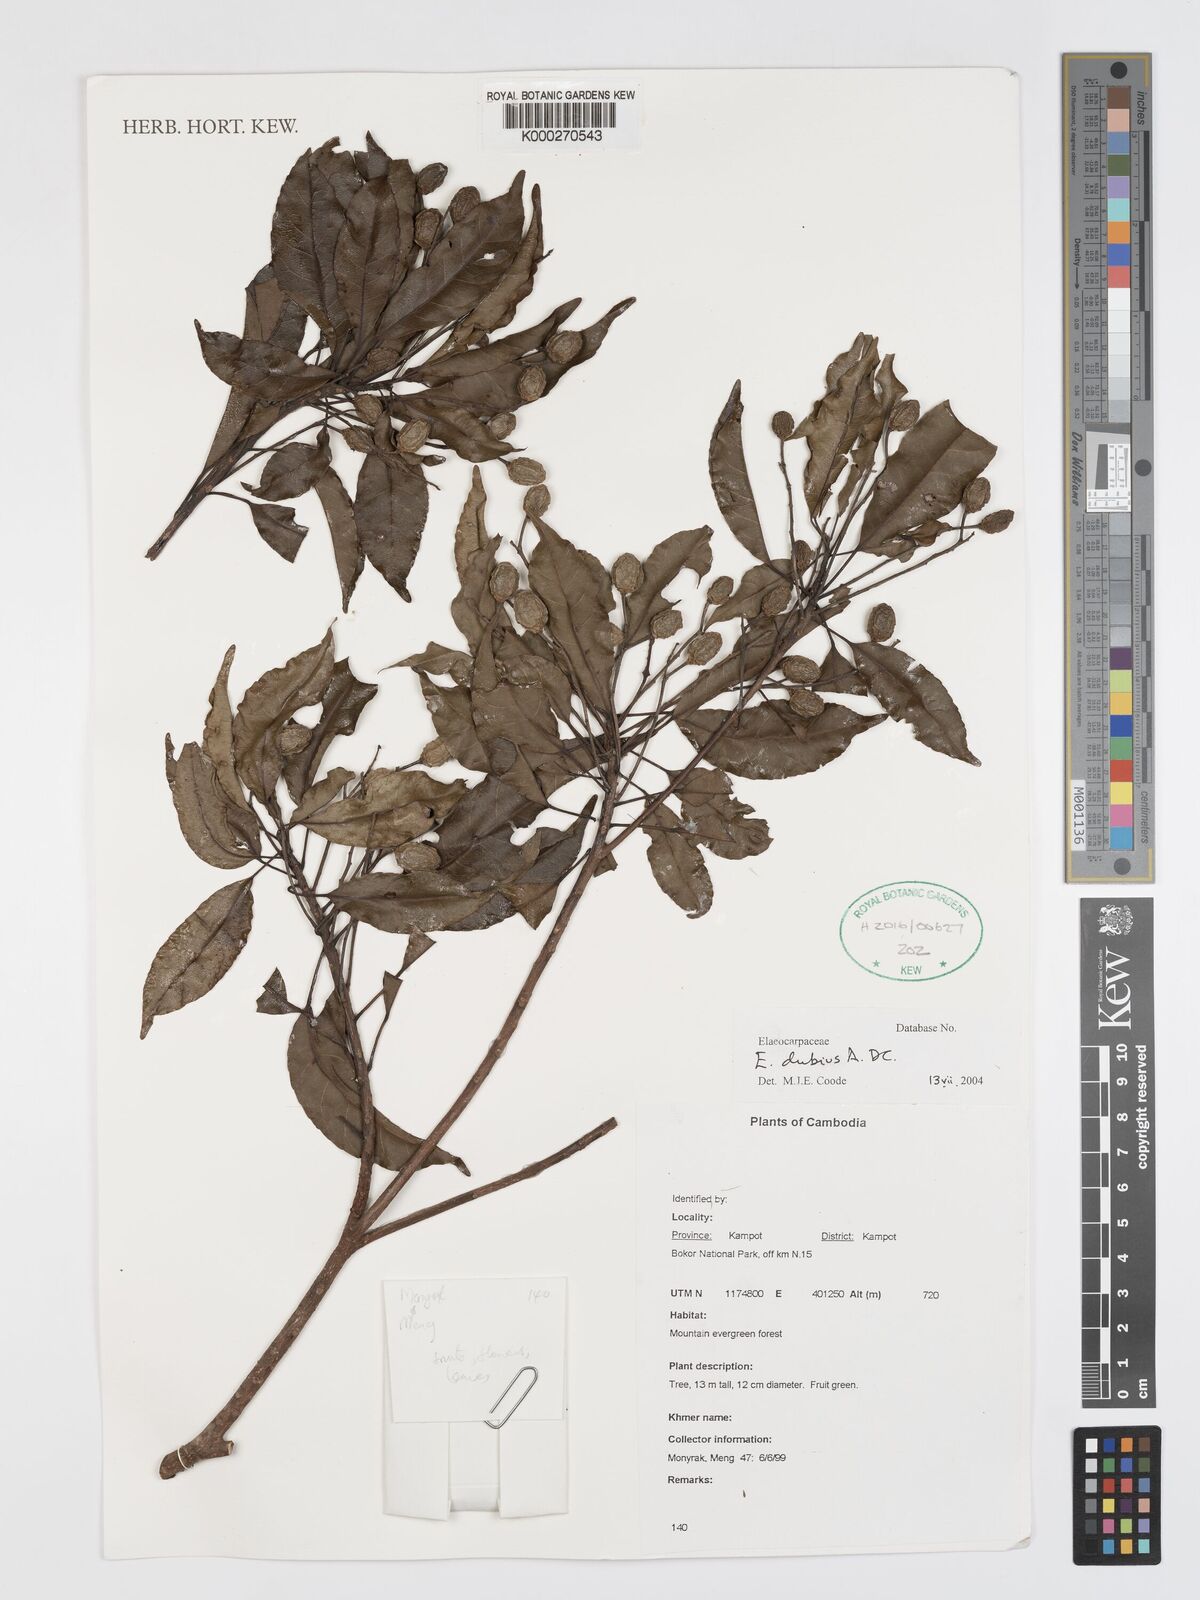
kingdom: Plantae
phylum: Tracheophyta
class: Magnoliopsida
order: Oxalidales
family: Elaeocarpaceae
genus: Elaeocarpus
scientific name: Elaeocarpus dubius
